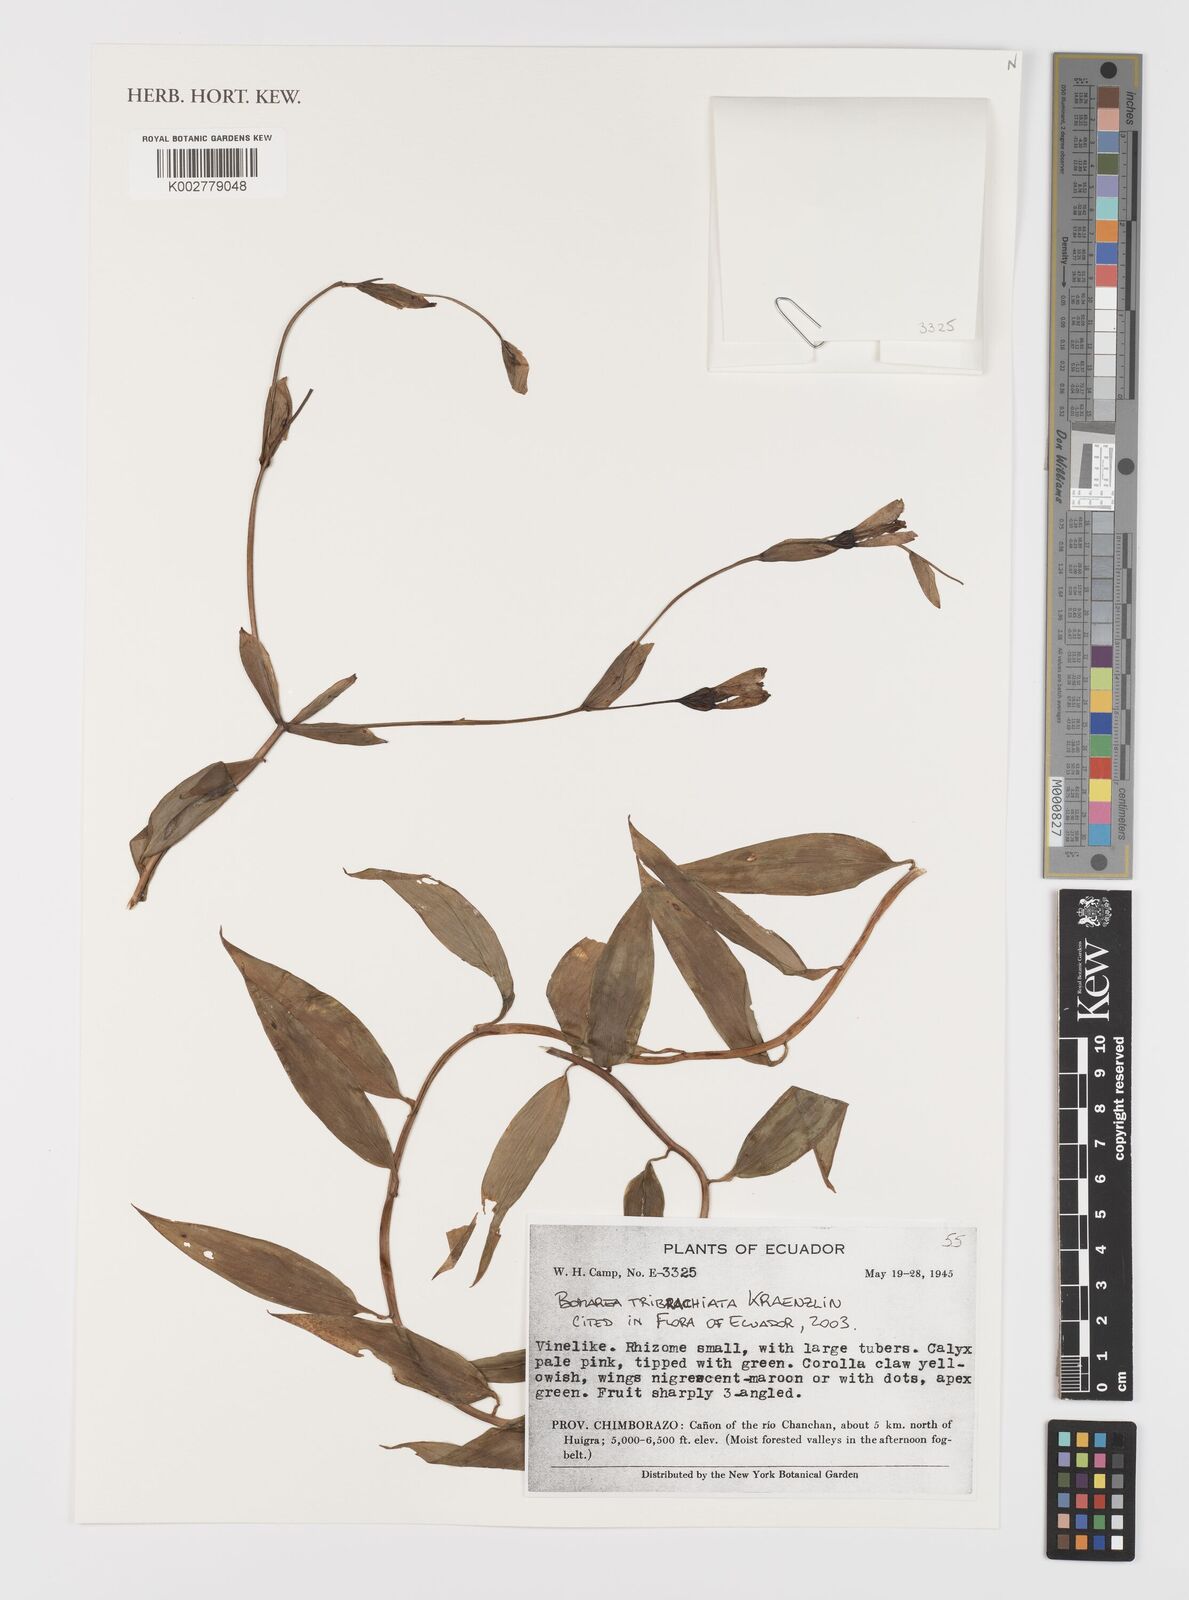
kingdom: Plantae
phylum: Tracheophyta
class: Liliopsida
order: Liliales
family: Alstroemeriaceae
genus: Bomarea
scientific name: Bomarea tribrachiata
